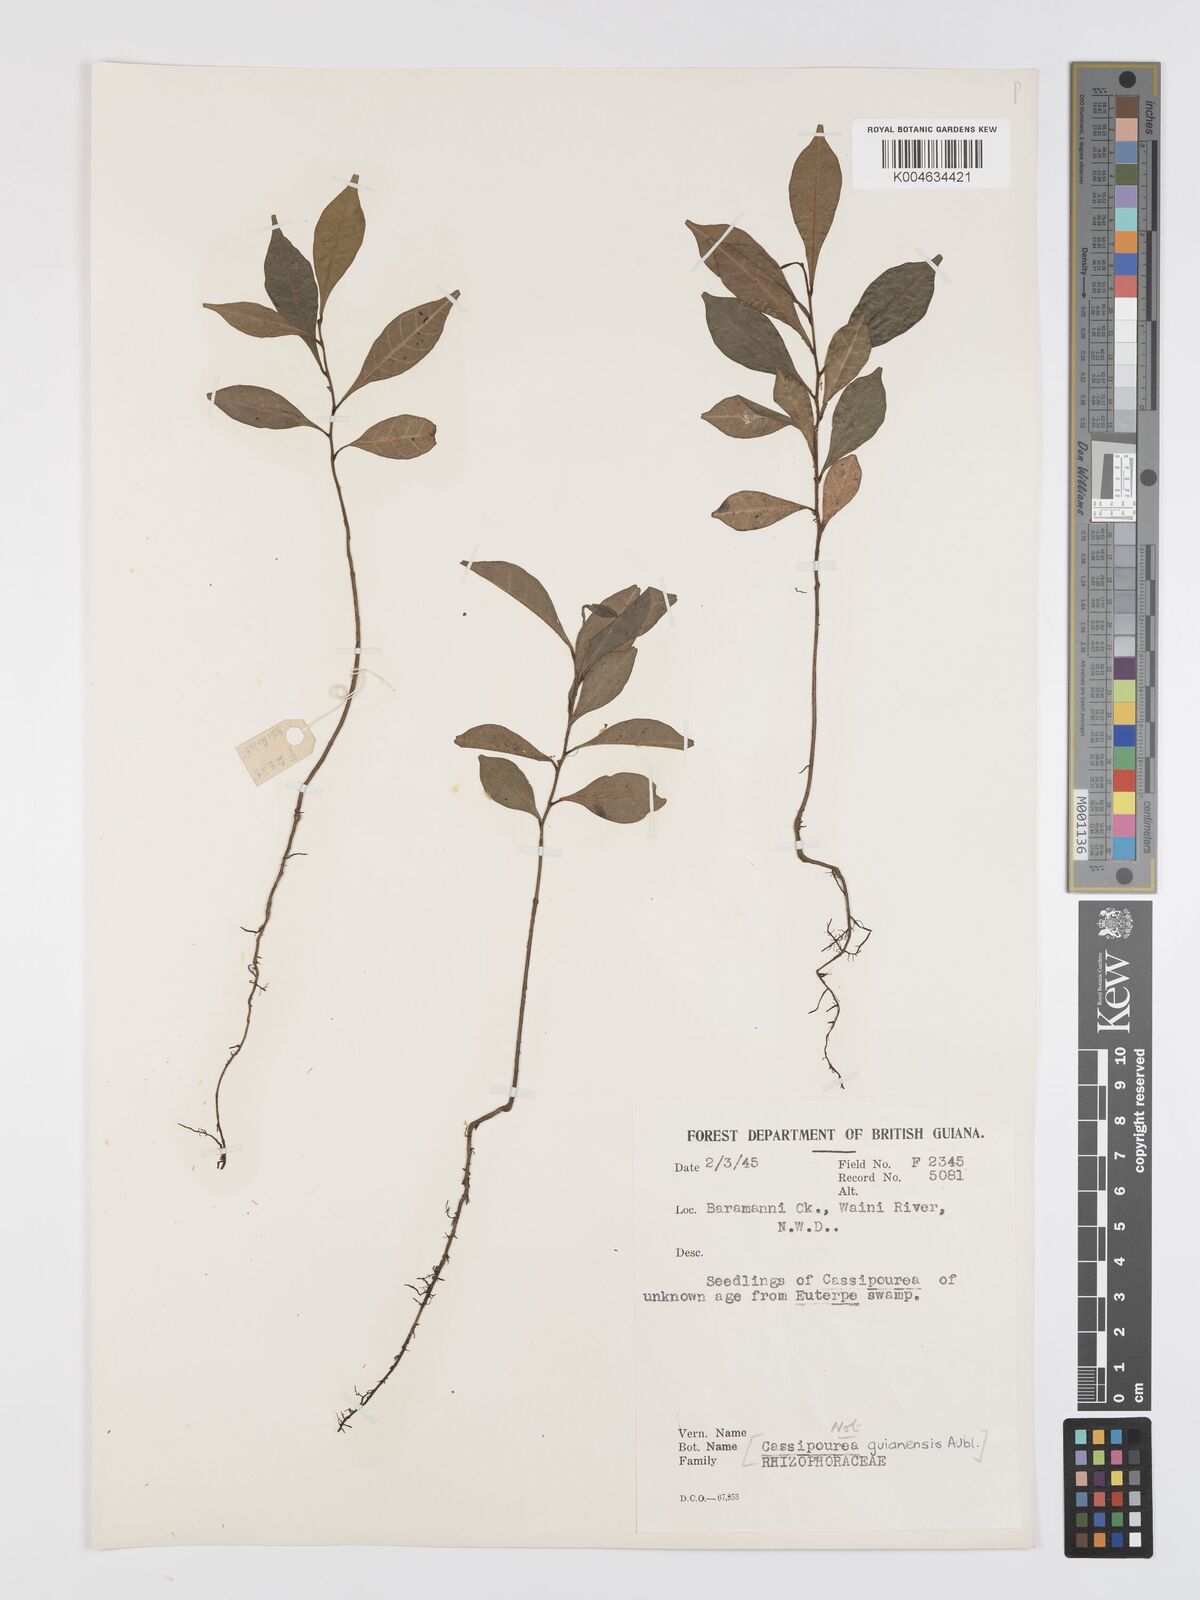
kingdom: Plantae
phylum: Tracheophyta
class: Magnoliopsida
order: Malpighiales
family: Rhizophoraceae
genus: Cassipourea
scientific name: Cassipourea guianensis
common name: Bastard waterwood
